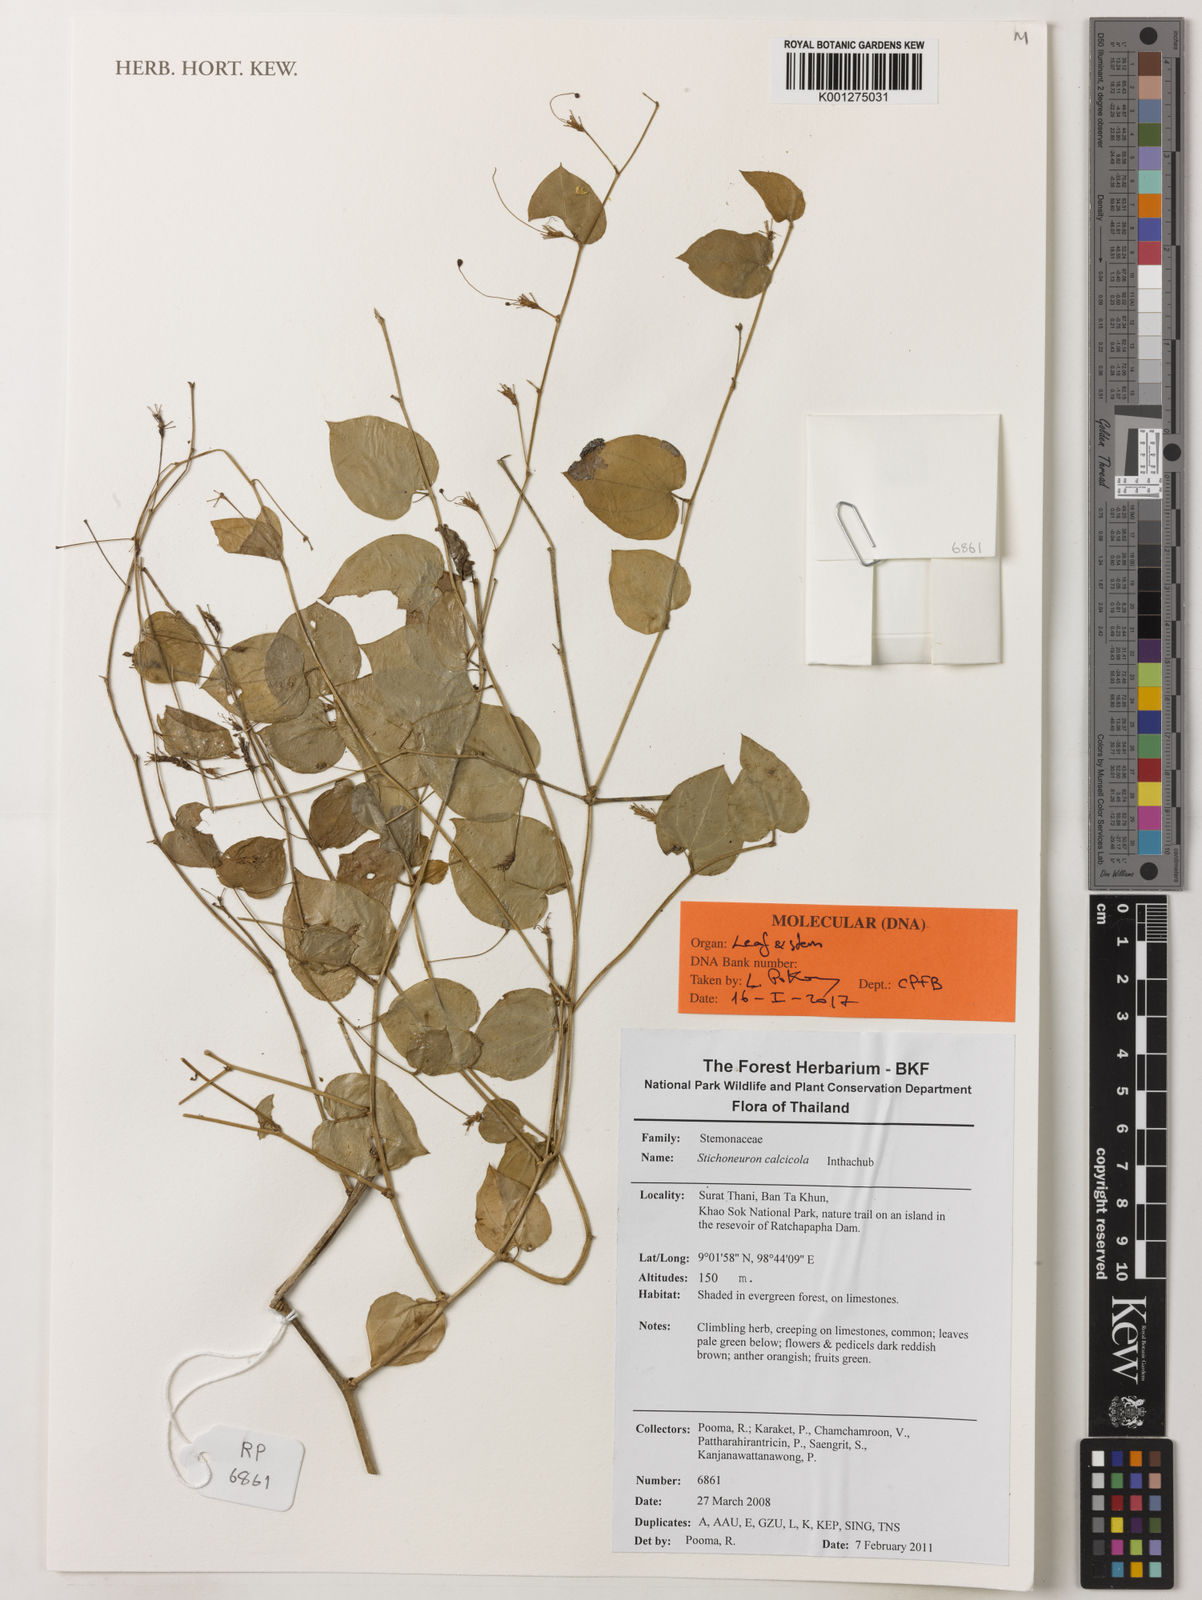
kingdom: Plantae
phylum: Tracheophyta
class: Liliopsida
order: Pandanales
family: Stemonaceae
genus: Stichoneuron
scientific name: Stichoneuron calcicola
